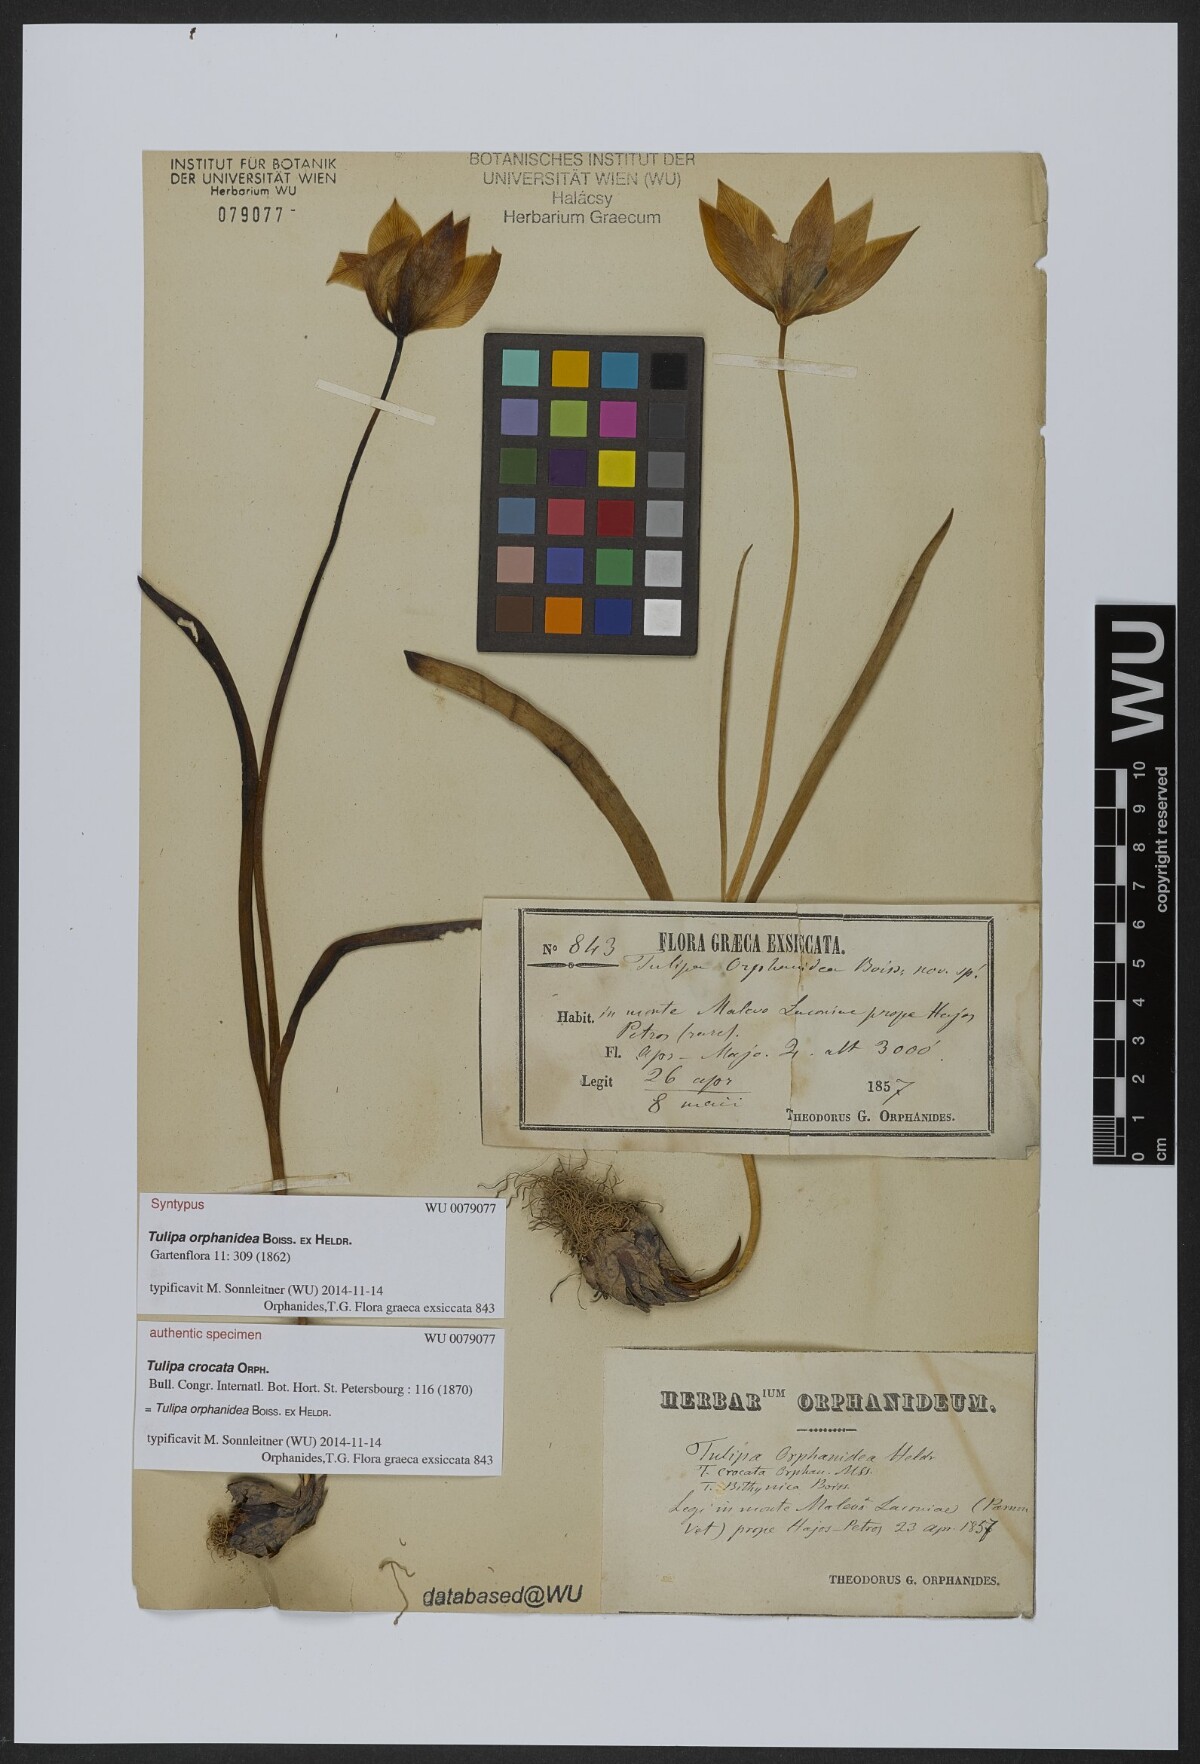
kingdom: Plantae
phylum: Tracheophyta
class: Liliopsida
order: Liliales
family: Liliaceae
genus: Tulipa
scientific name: Tulipa orphanidea
